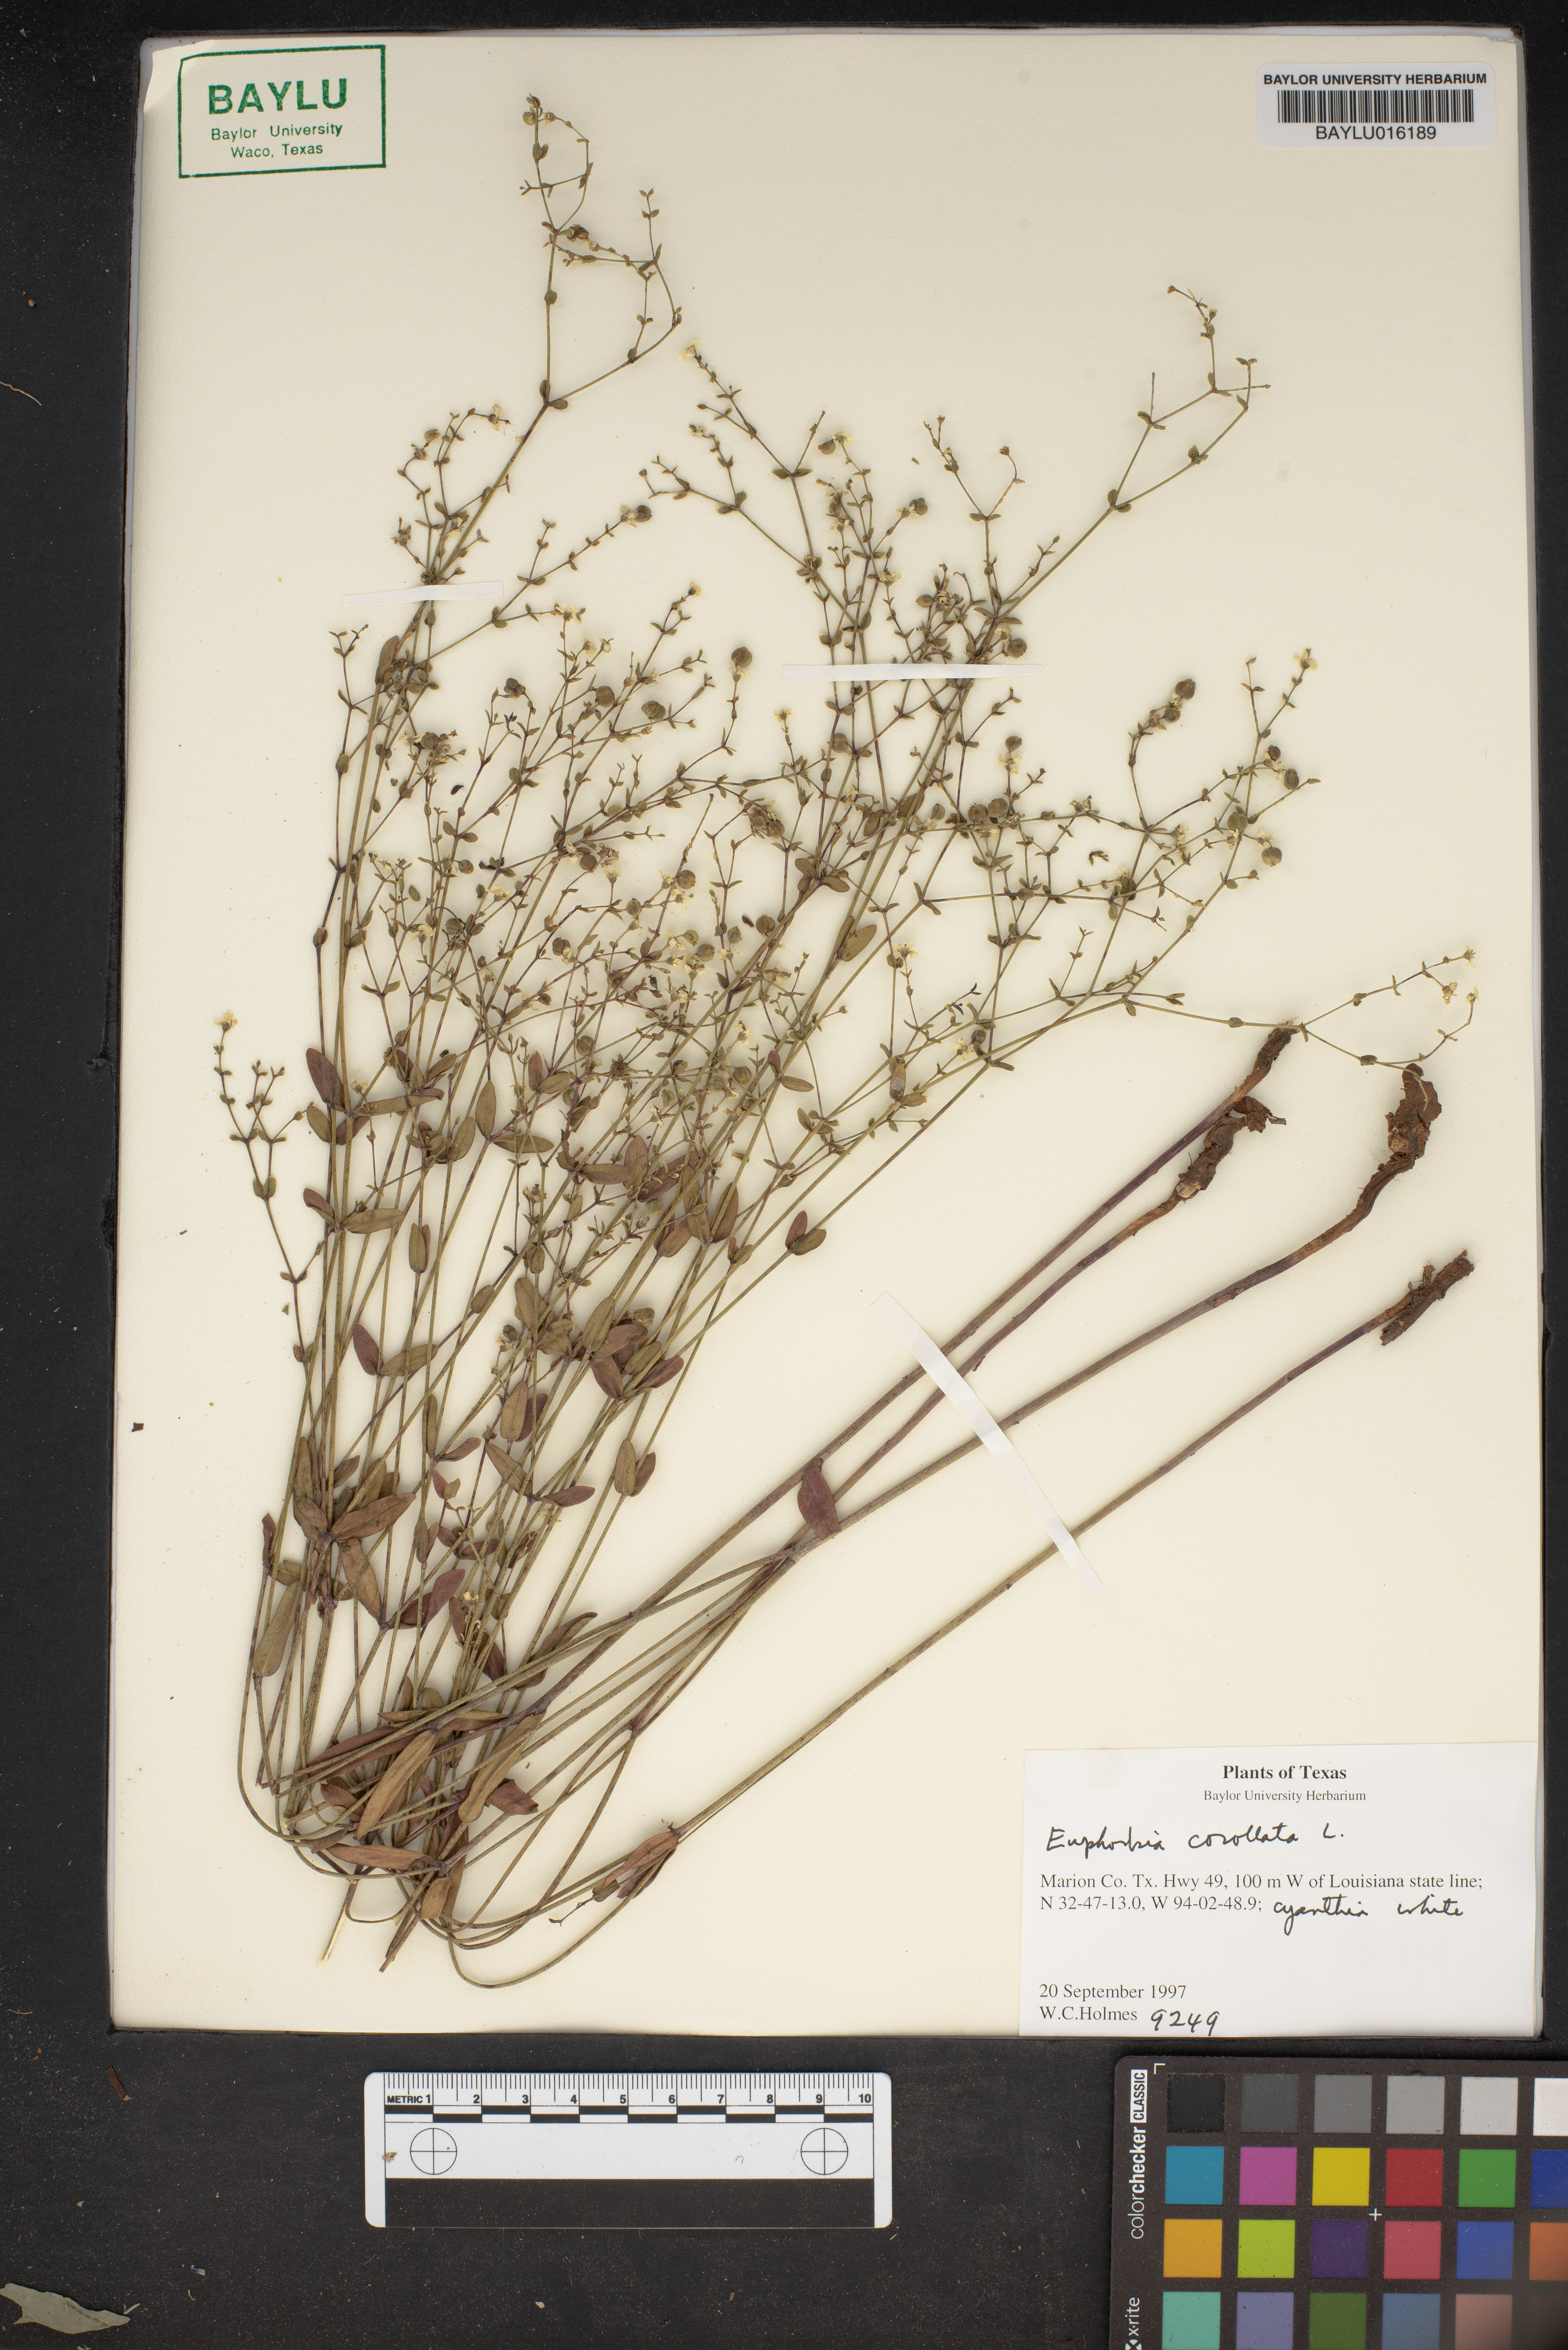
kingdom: Plantae
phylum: Tracheophyta
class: Magnoliopsida
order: Malpighiales
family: Euphorbiaceae
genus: Euphorbia
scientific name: Euphorbia corollata
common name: Flowering spurge
